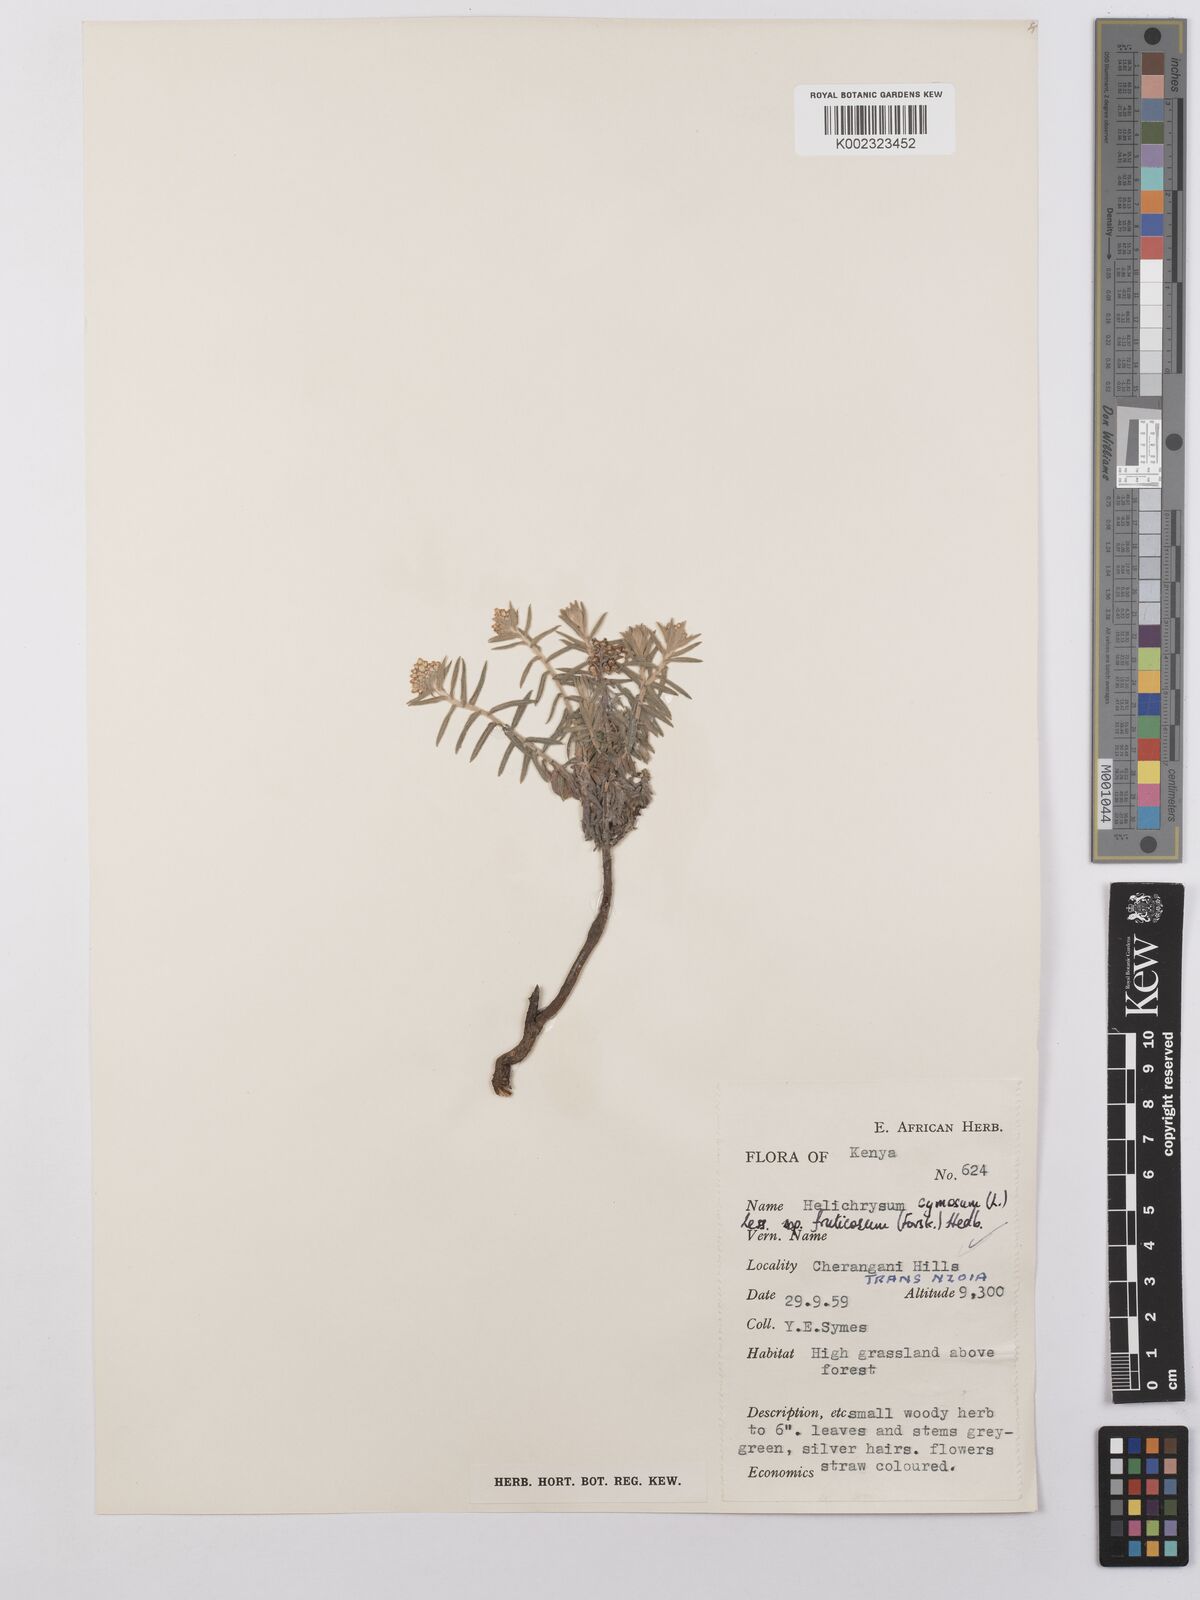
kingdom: Plantae
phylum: Tracheophyta
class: Magnoliopsida
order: Asterales
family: Asteraceae
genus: Helichrysum
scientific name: Helichrysum forskahlii
